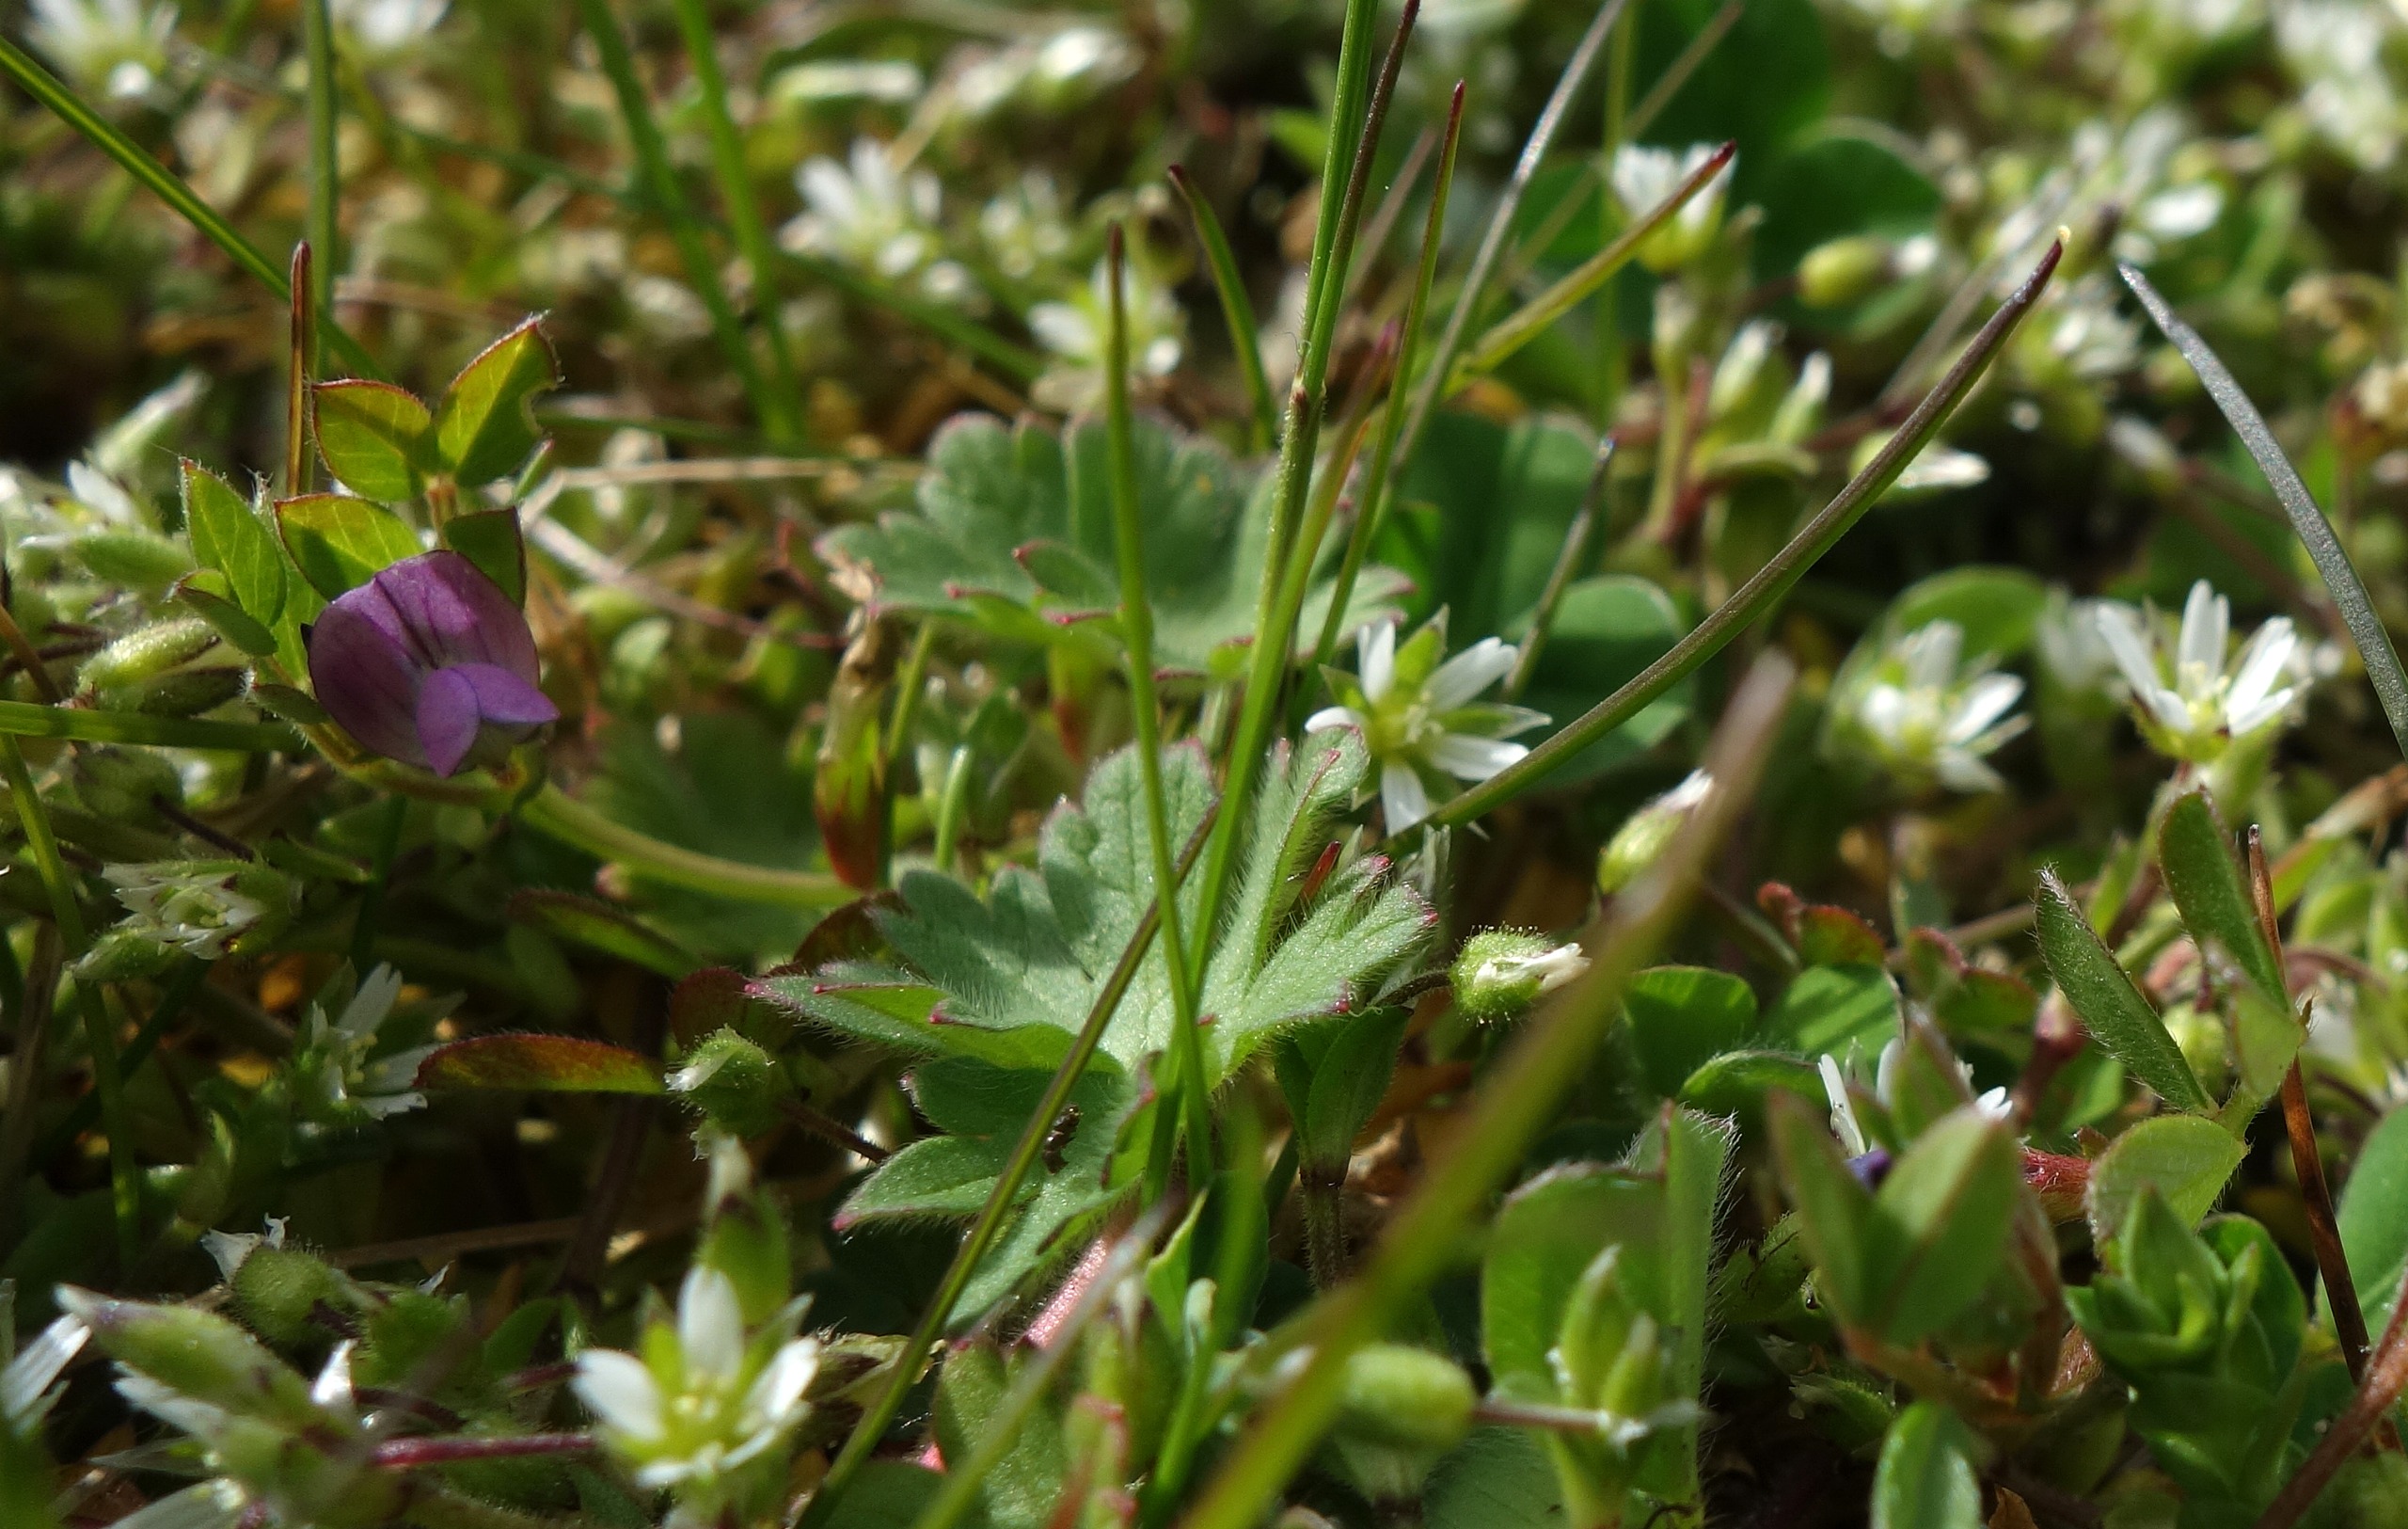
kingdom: Plantae
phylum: Tracheophyta
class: Magnoliopsida
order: Fabales
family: Fabaceae
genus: Vicia
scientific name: Vicia lathyroides
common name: Vår-vikke
